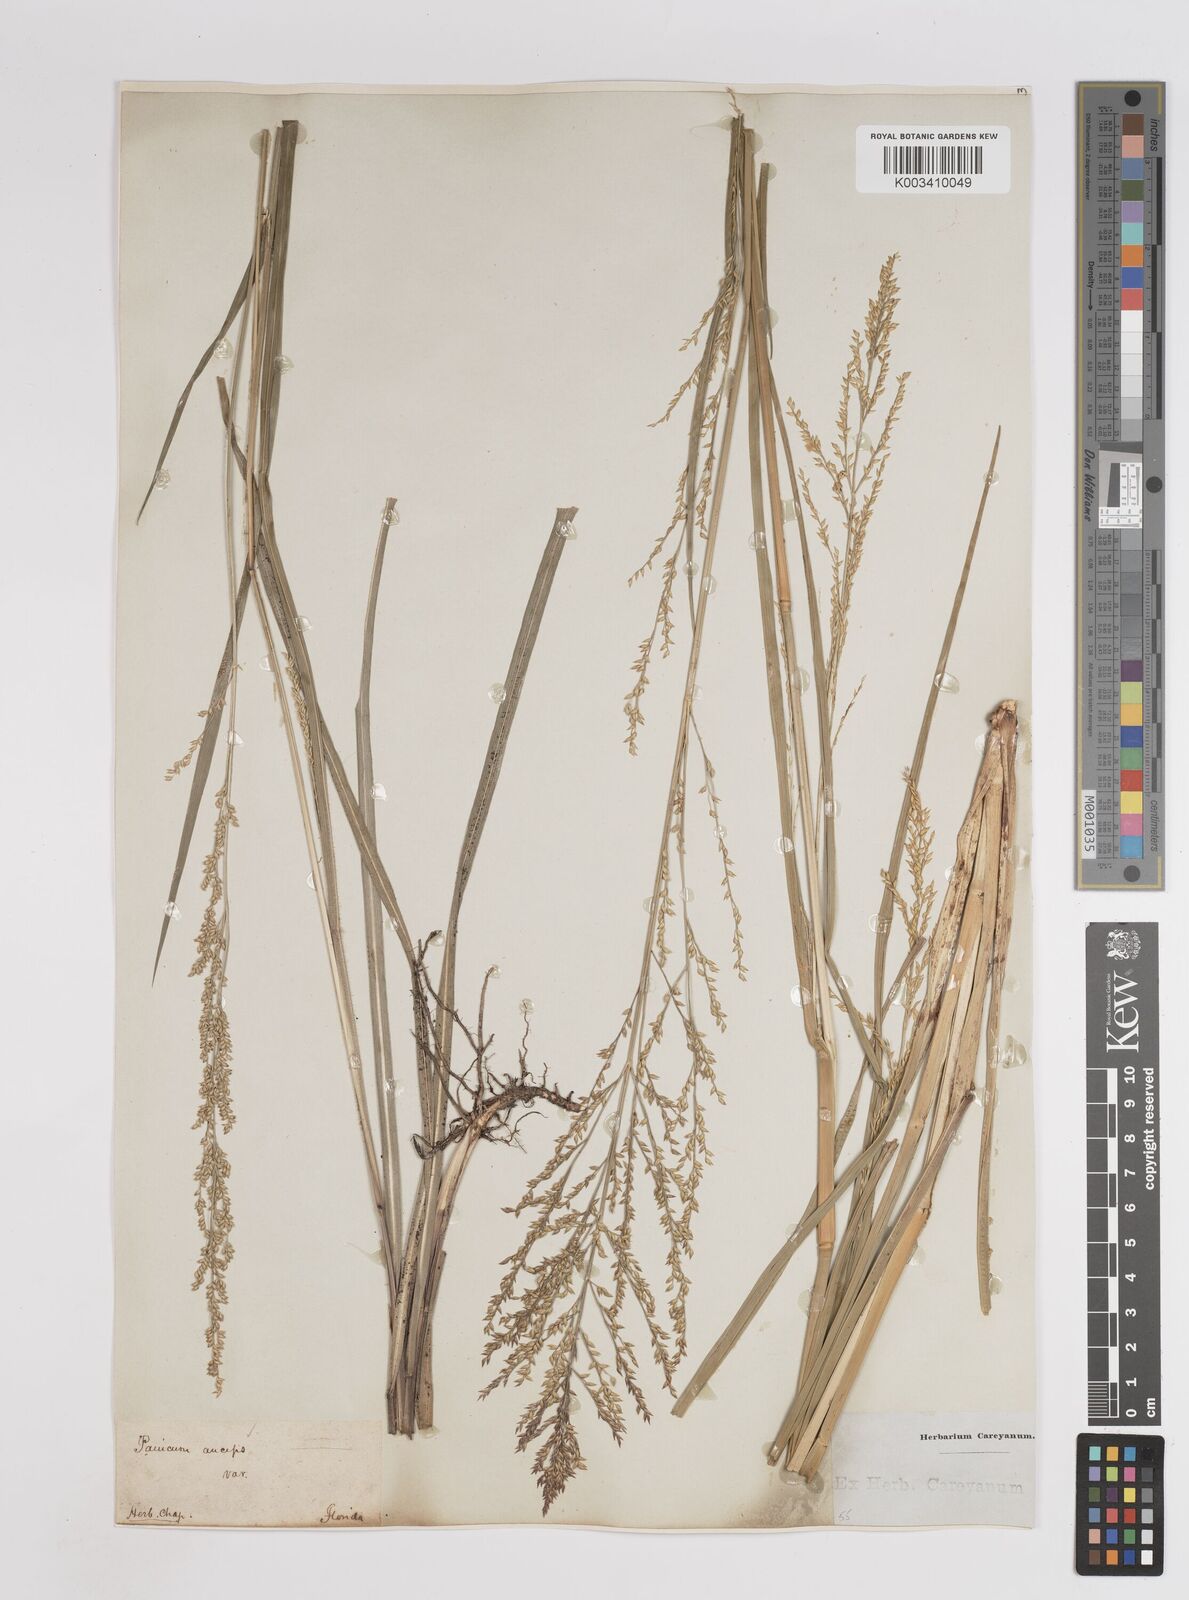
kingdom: Plantae
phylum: Tracheophyta
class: Liliopsida
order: Poales
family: Poaceae
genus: Coleataenia
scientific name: Coleataenia anceps
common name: Beaked panic grass
